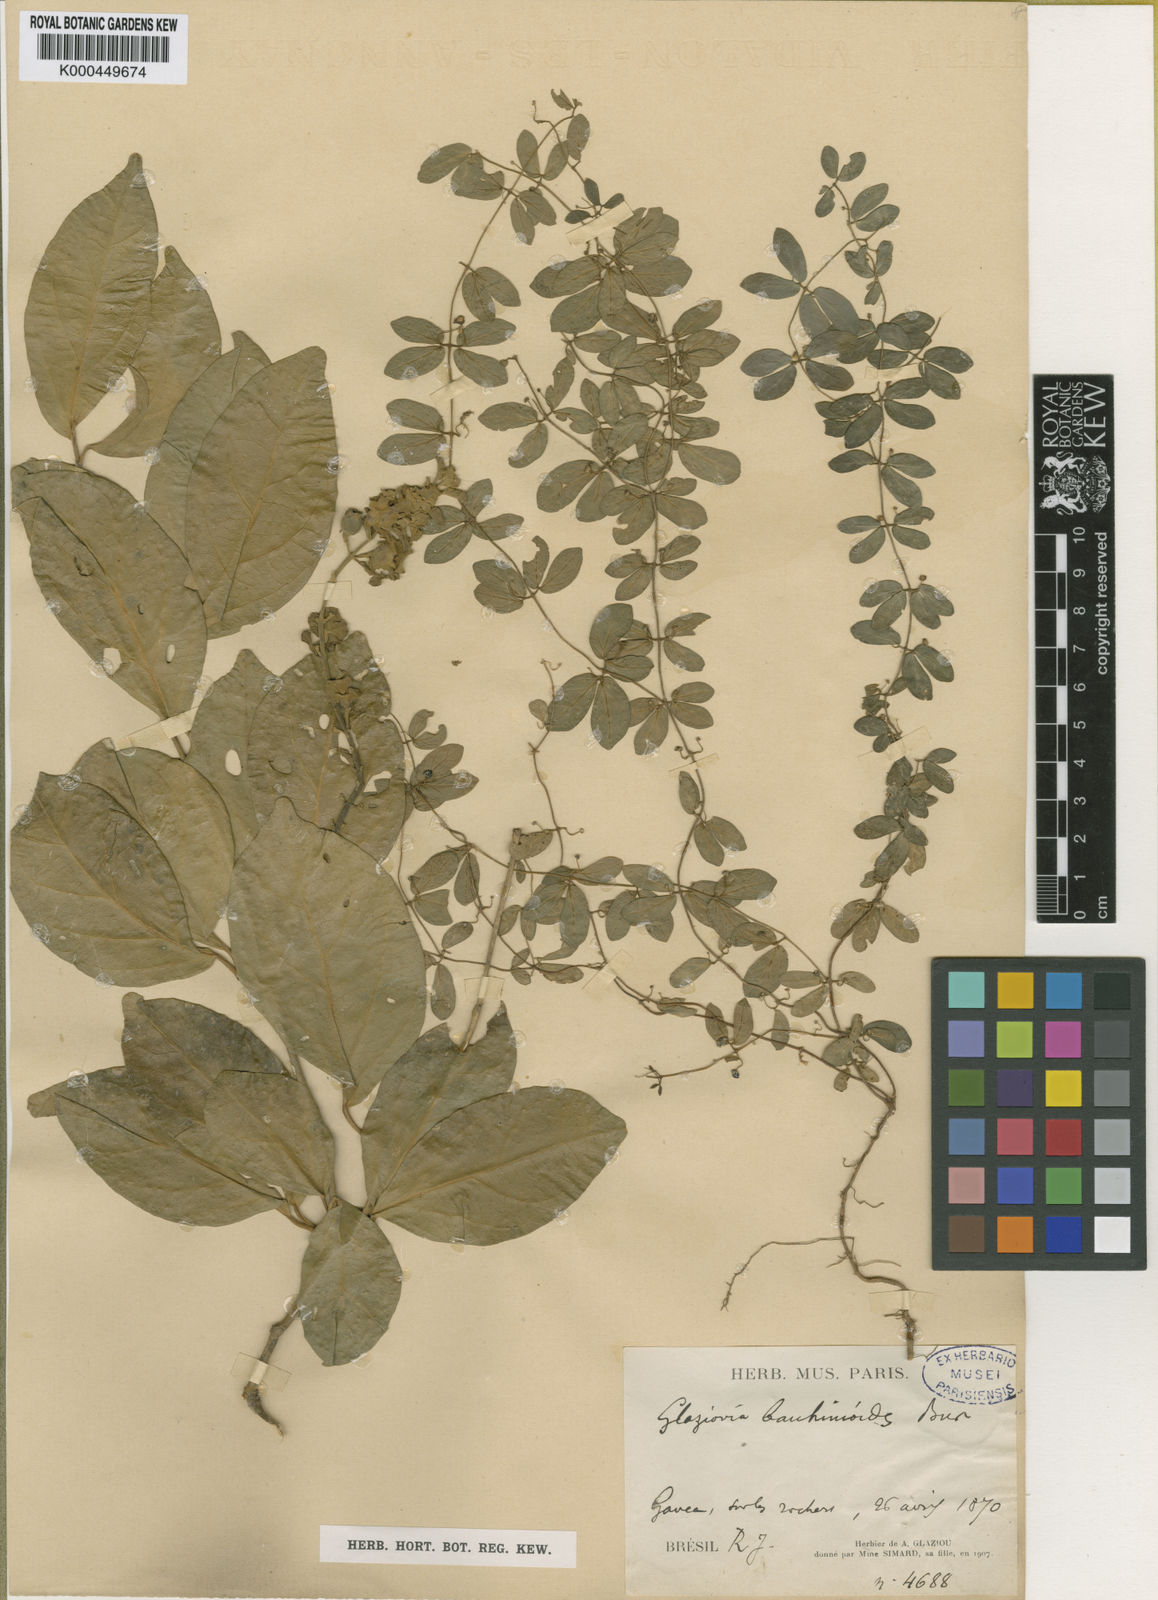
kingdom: Plantae
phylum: Tracheophyta
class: Magnoliopsida
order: Lamiales
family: Bignoniaceae
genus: Amphilophium
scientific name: Amphilophium bauhinioides
